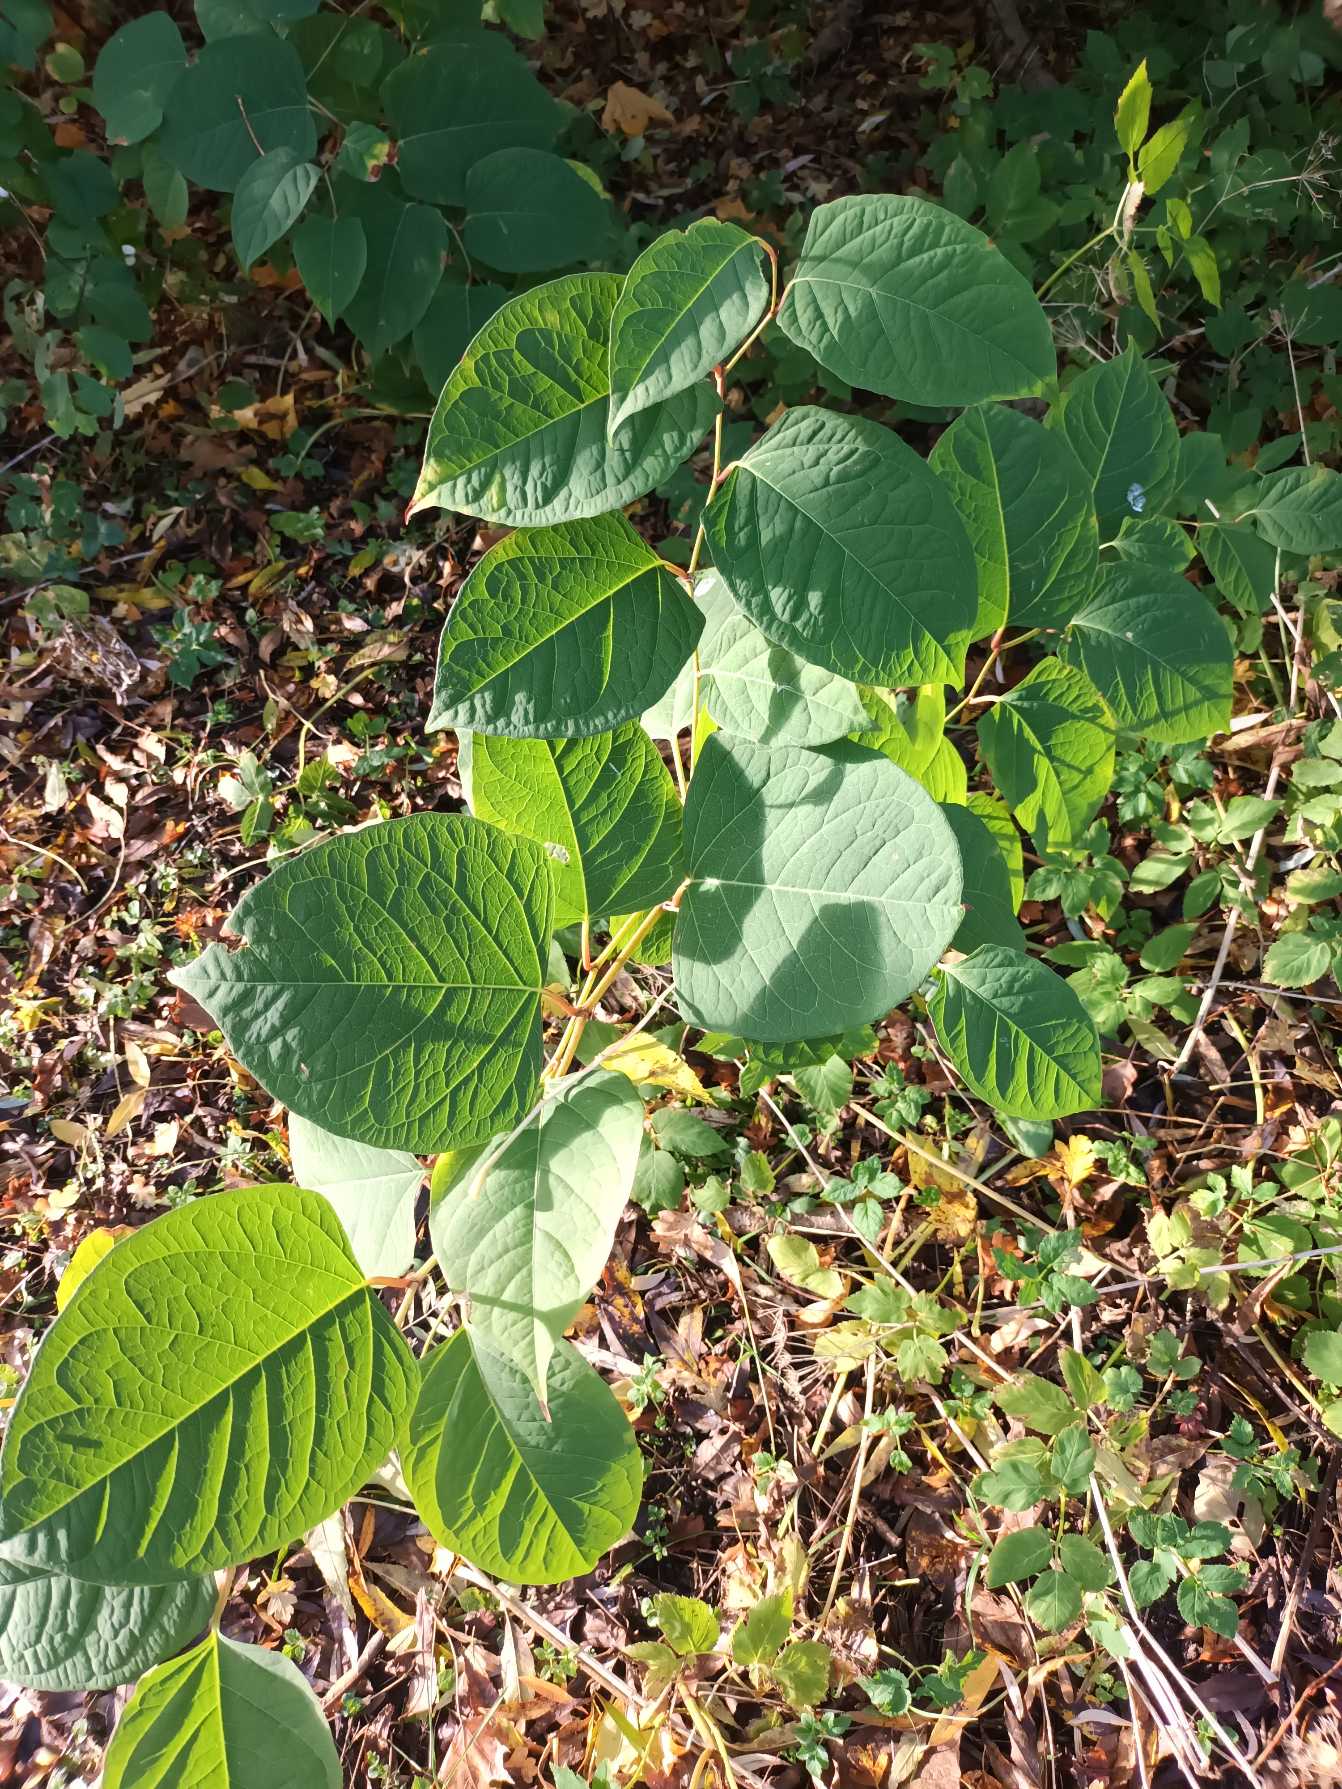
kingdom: Plantae
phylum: Tracheophyta
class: Magnoliopsida
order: Caryophyllales
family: Polygonaceae
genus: Reynoutria
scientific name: Reynoutria japonica
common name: Japan-pileurt
